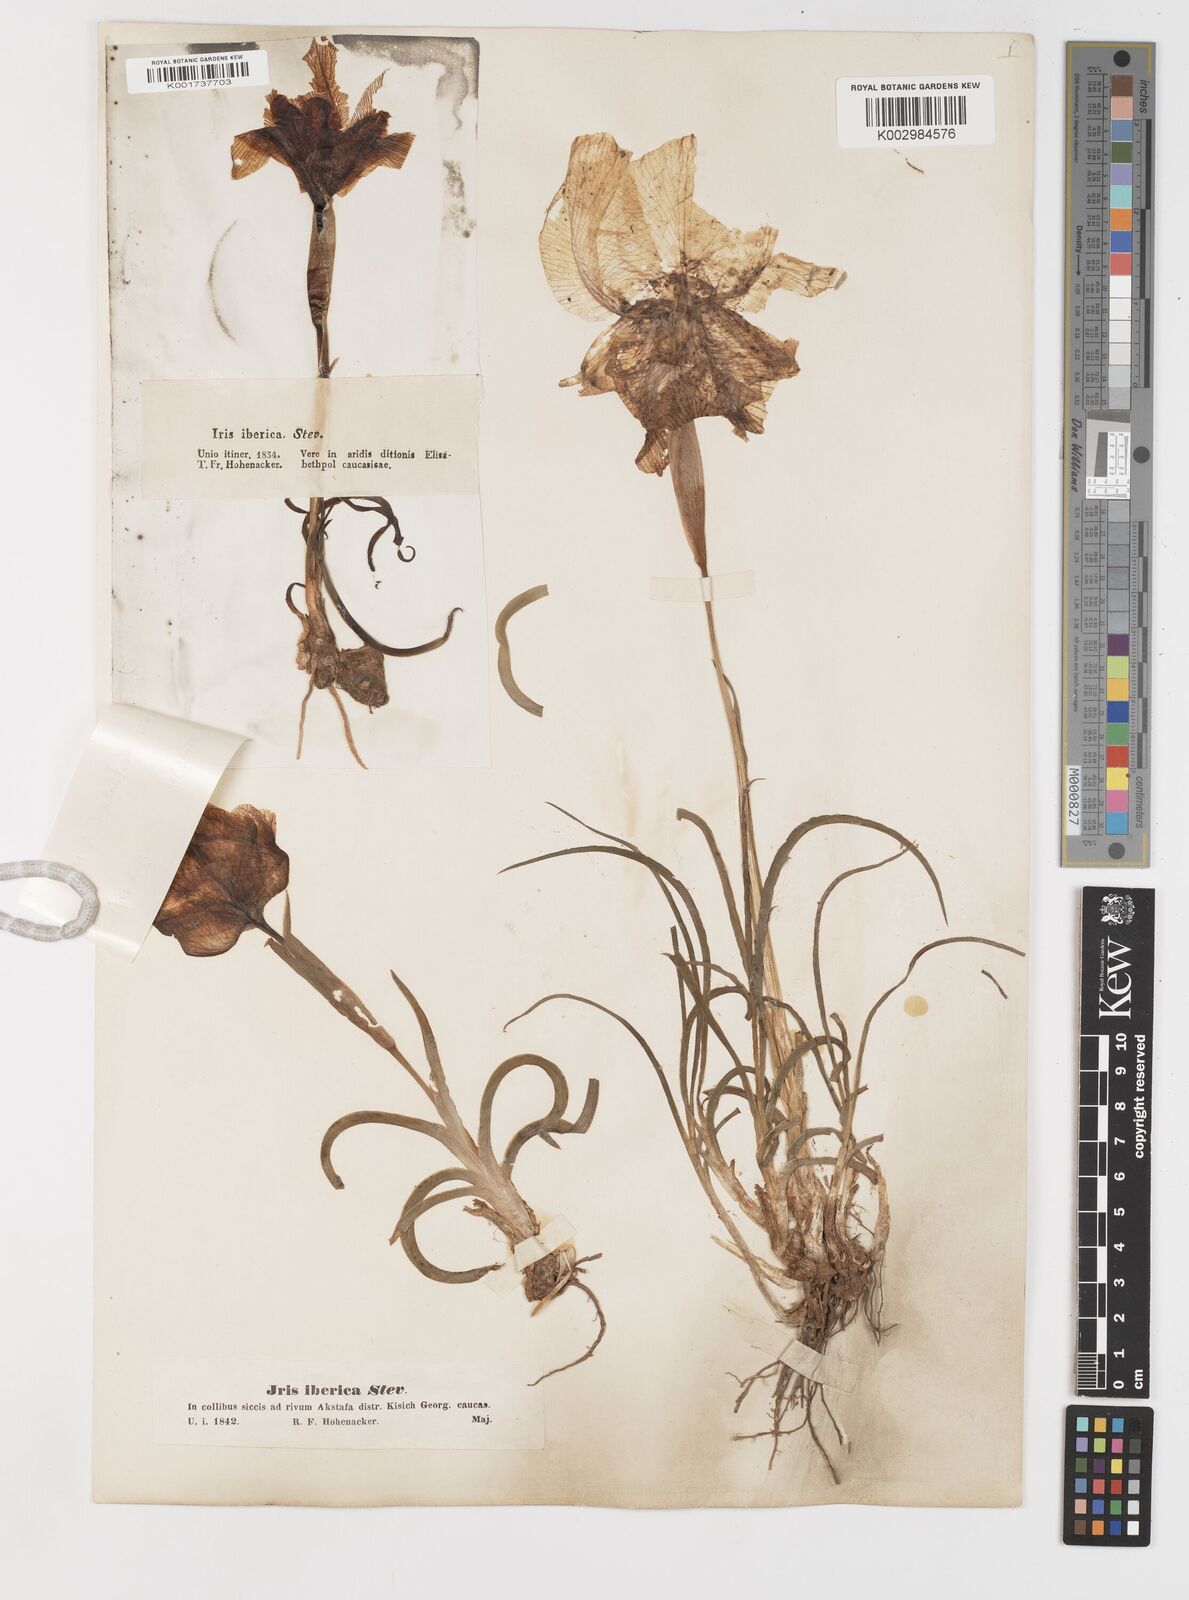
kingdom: Plantae
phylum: Tracheophyta
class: Liliopsida
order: Asparagales
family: Iridaceae
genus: Iris
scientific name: Iris iberica
